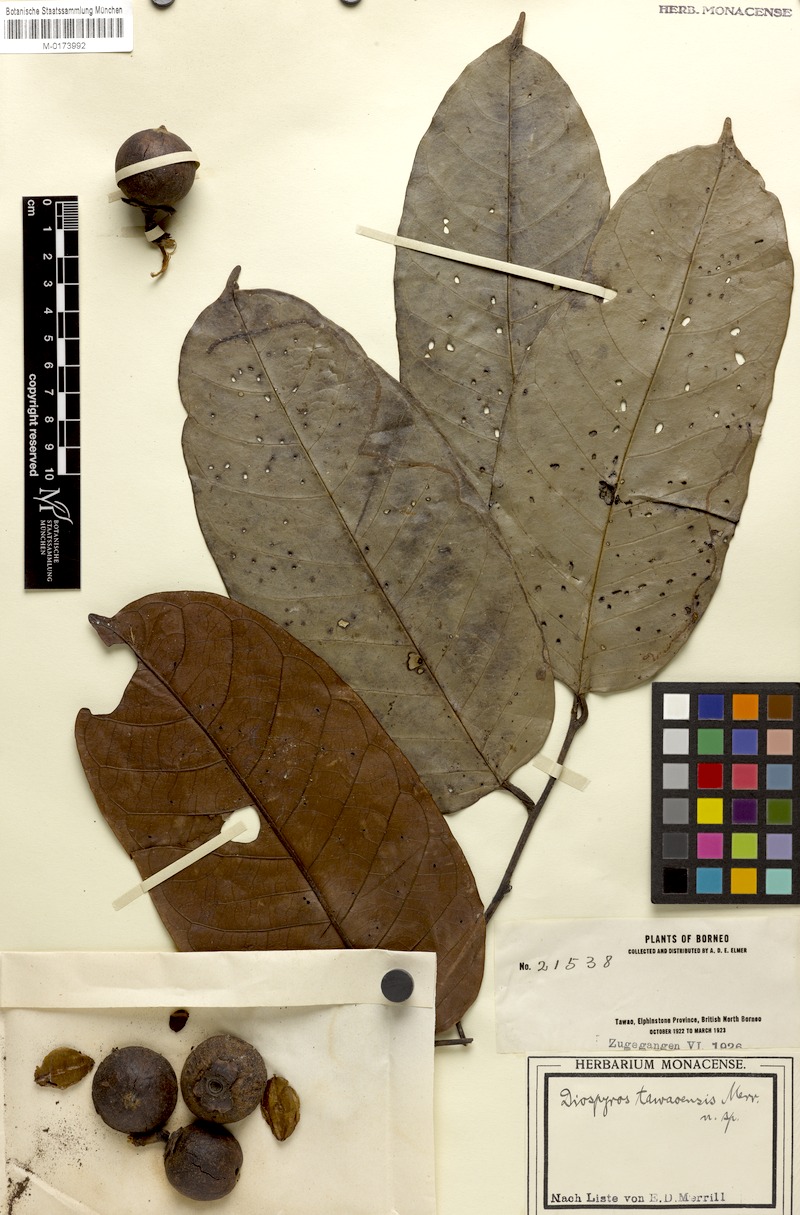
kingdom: Plantae
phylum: Tracheophyta
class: Magnoliopsida
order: Ericales
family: Ebenaceae
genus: Diospyros
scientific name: Diospyros borneensis
